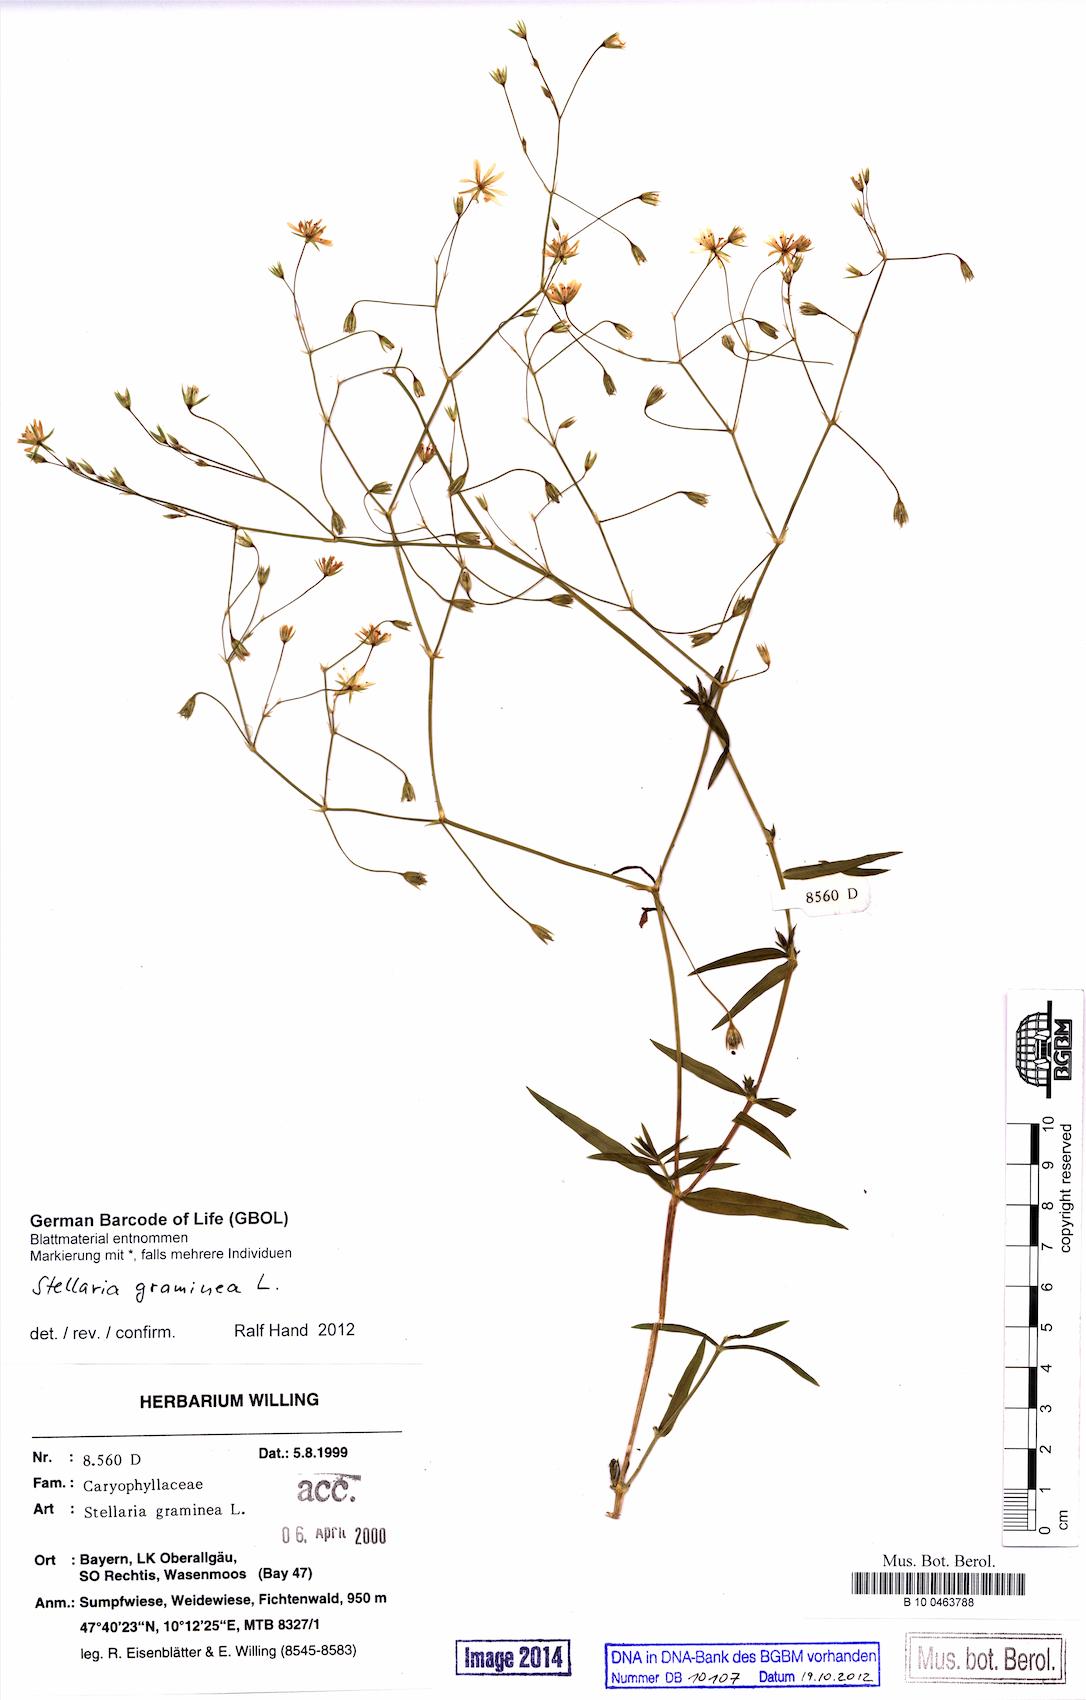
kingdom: Plantae
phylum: Tracheophyta
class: Magnoliopsida
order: Caryophyllales
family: Caryophyllaceae
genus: Stellaria
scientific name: Stellaria graminea
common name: Grass-like starwort
